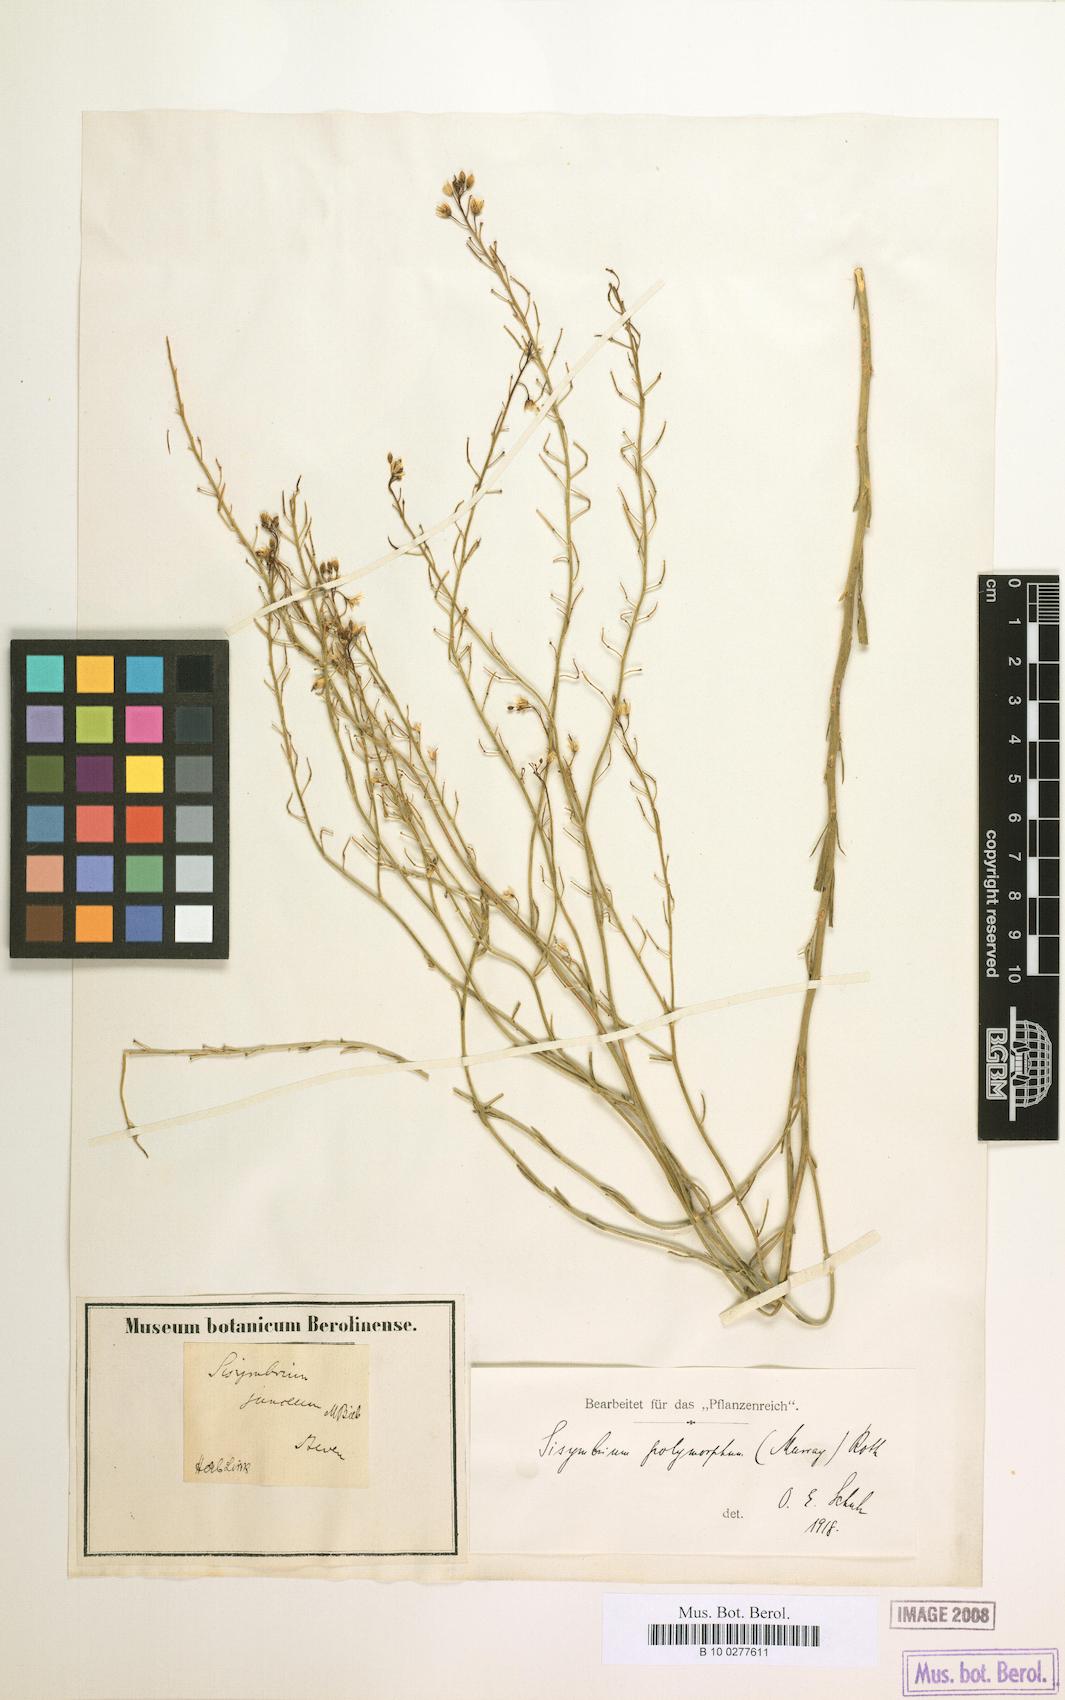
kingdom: Plantae
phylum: Tracheophyta
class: Magnoliopsida
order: Brassicales
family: Brassicaceae
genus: Sisymbrium
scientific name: Sisymbrium polymorphum
